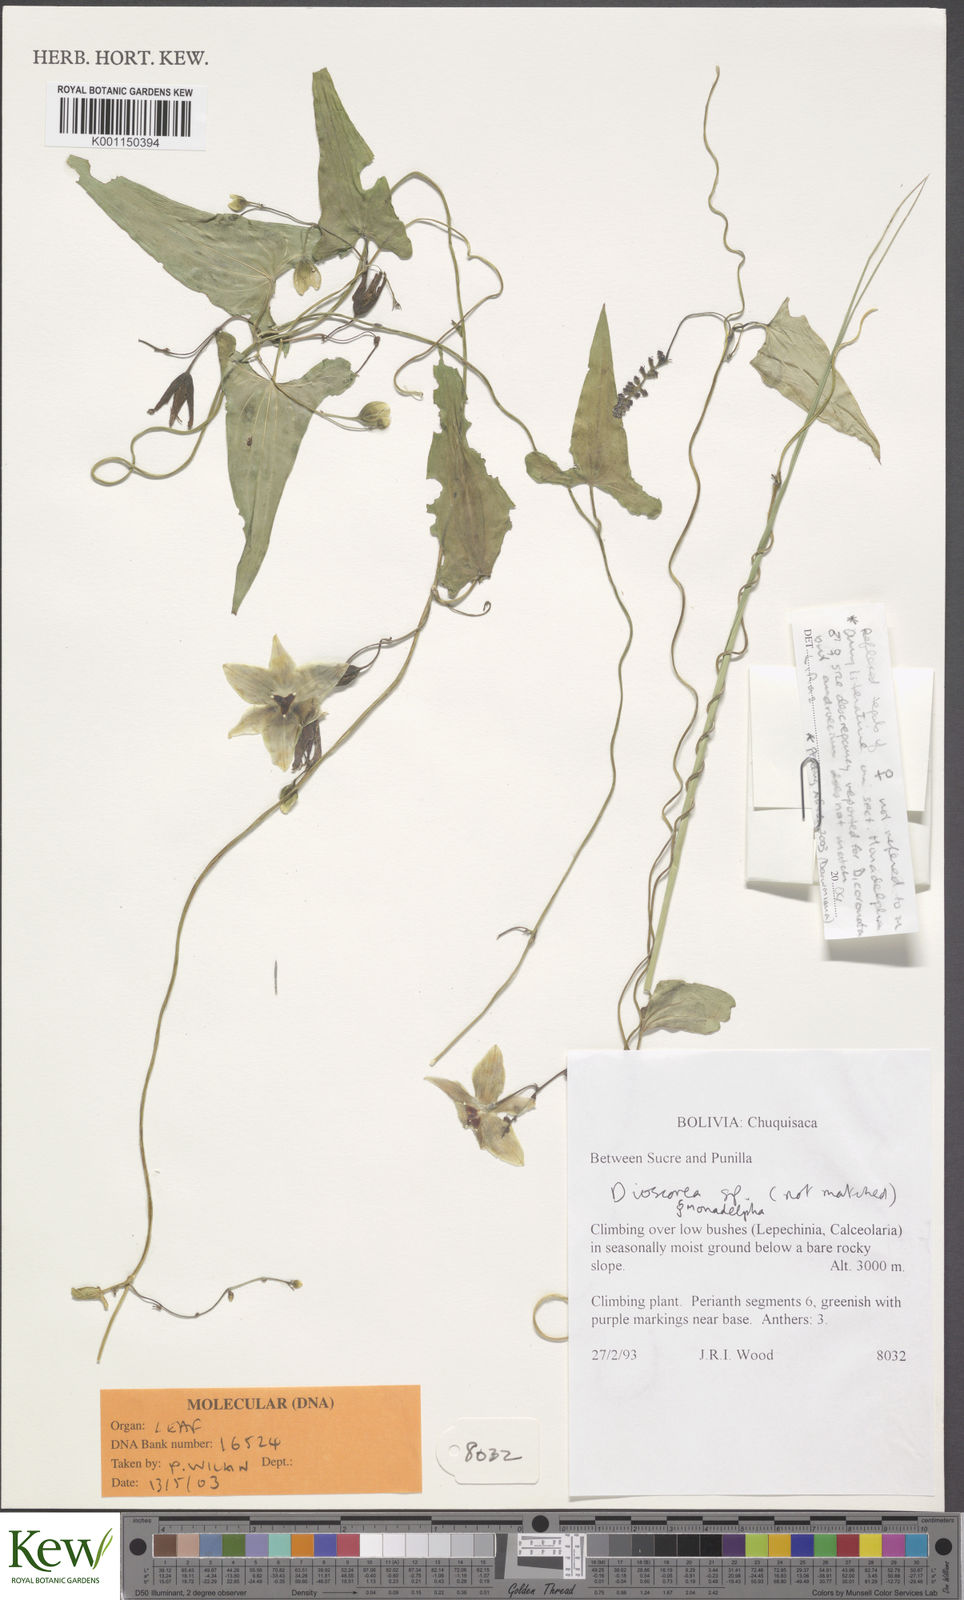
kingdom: Plantae
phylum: Tracheophyta
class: Liliopsida
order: Dioscoreales
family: Dioscoreaceae
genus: Dioscorea
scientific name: Dioscorea spectabilis
